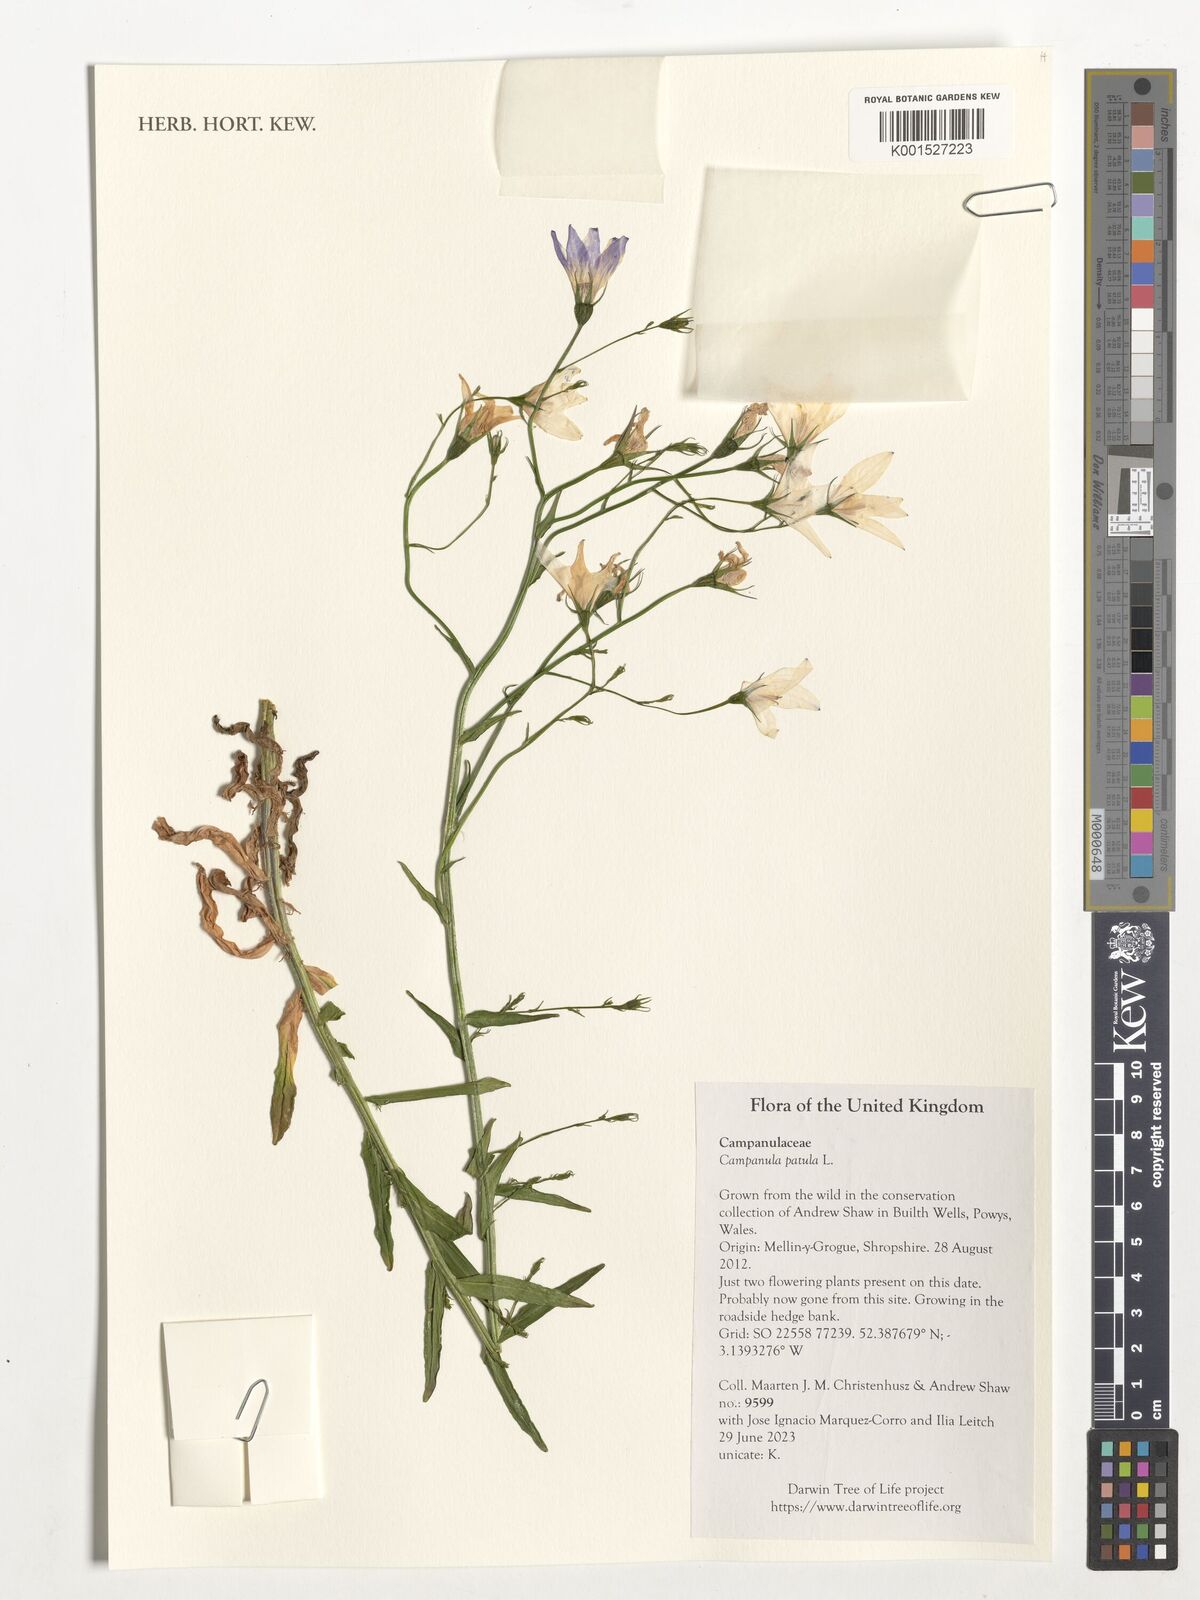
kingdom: Plantae
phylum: Tracheophyta
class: Magnoliopsida
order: Asterales
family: Campanulaceae
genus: Campanula
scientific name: Campanula patula
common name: Spreading bellflower
